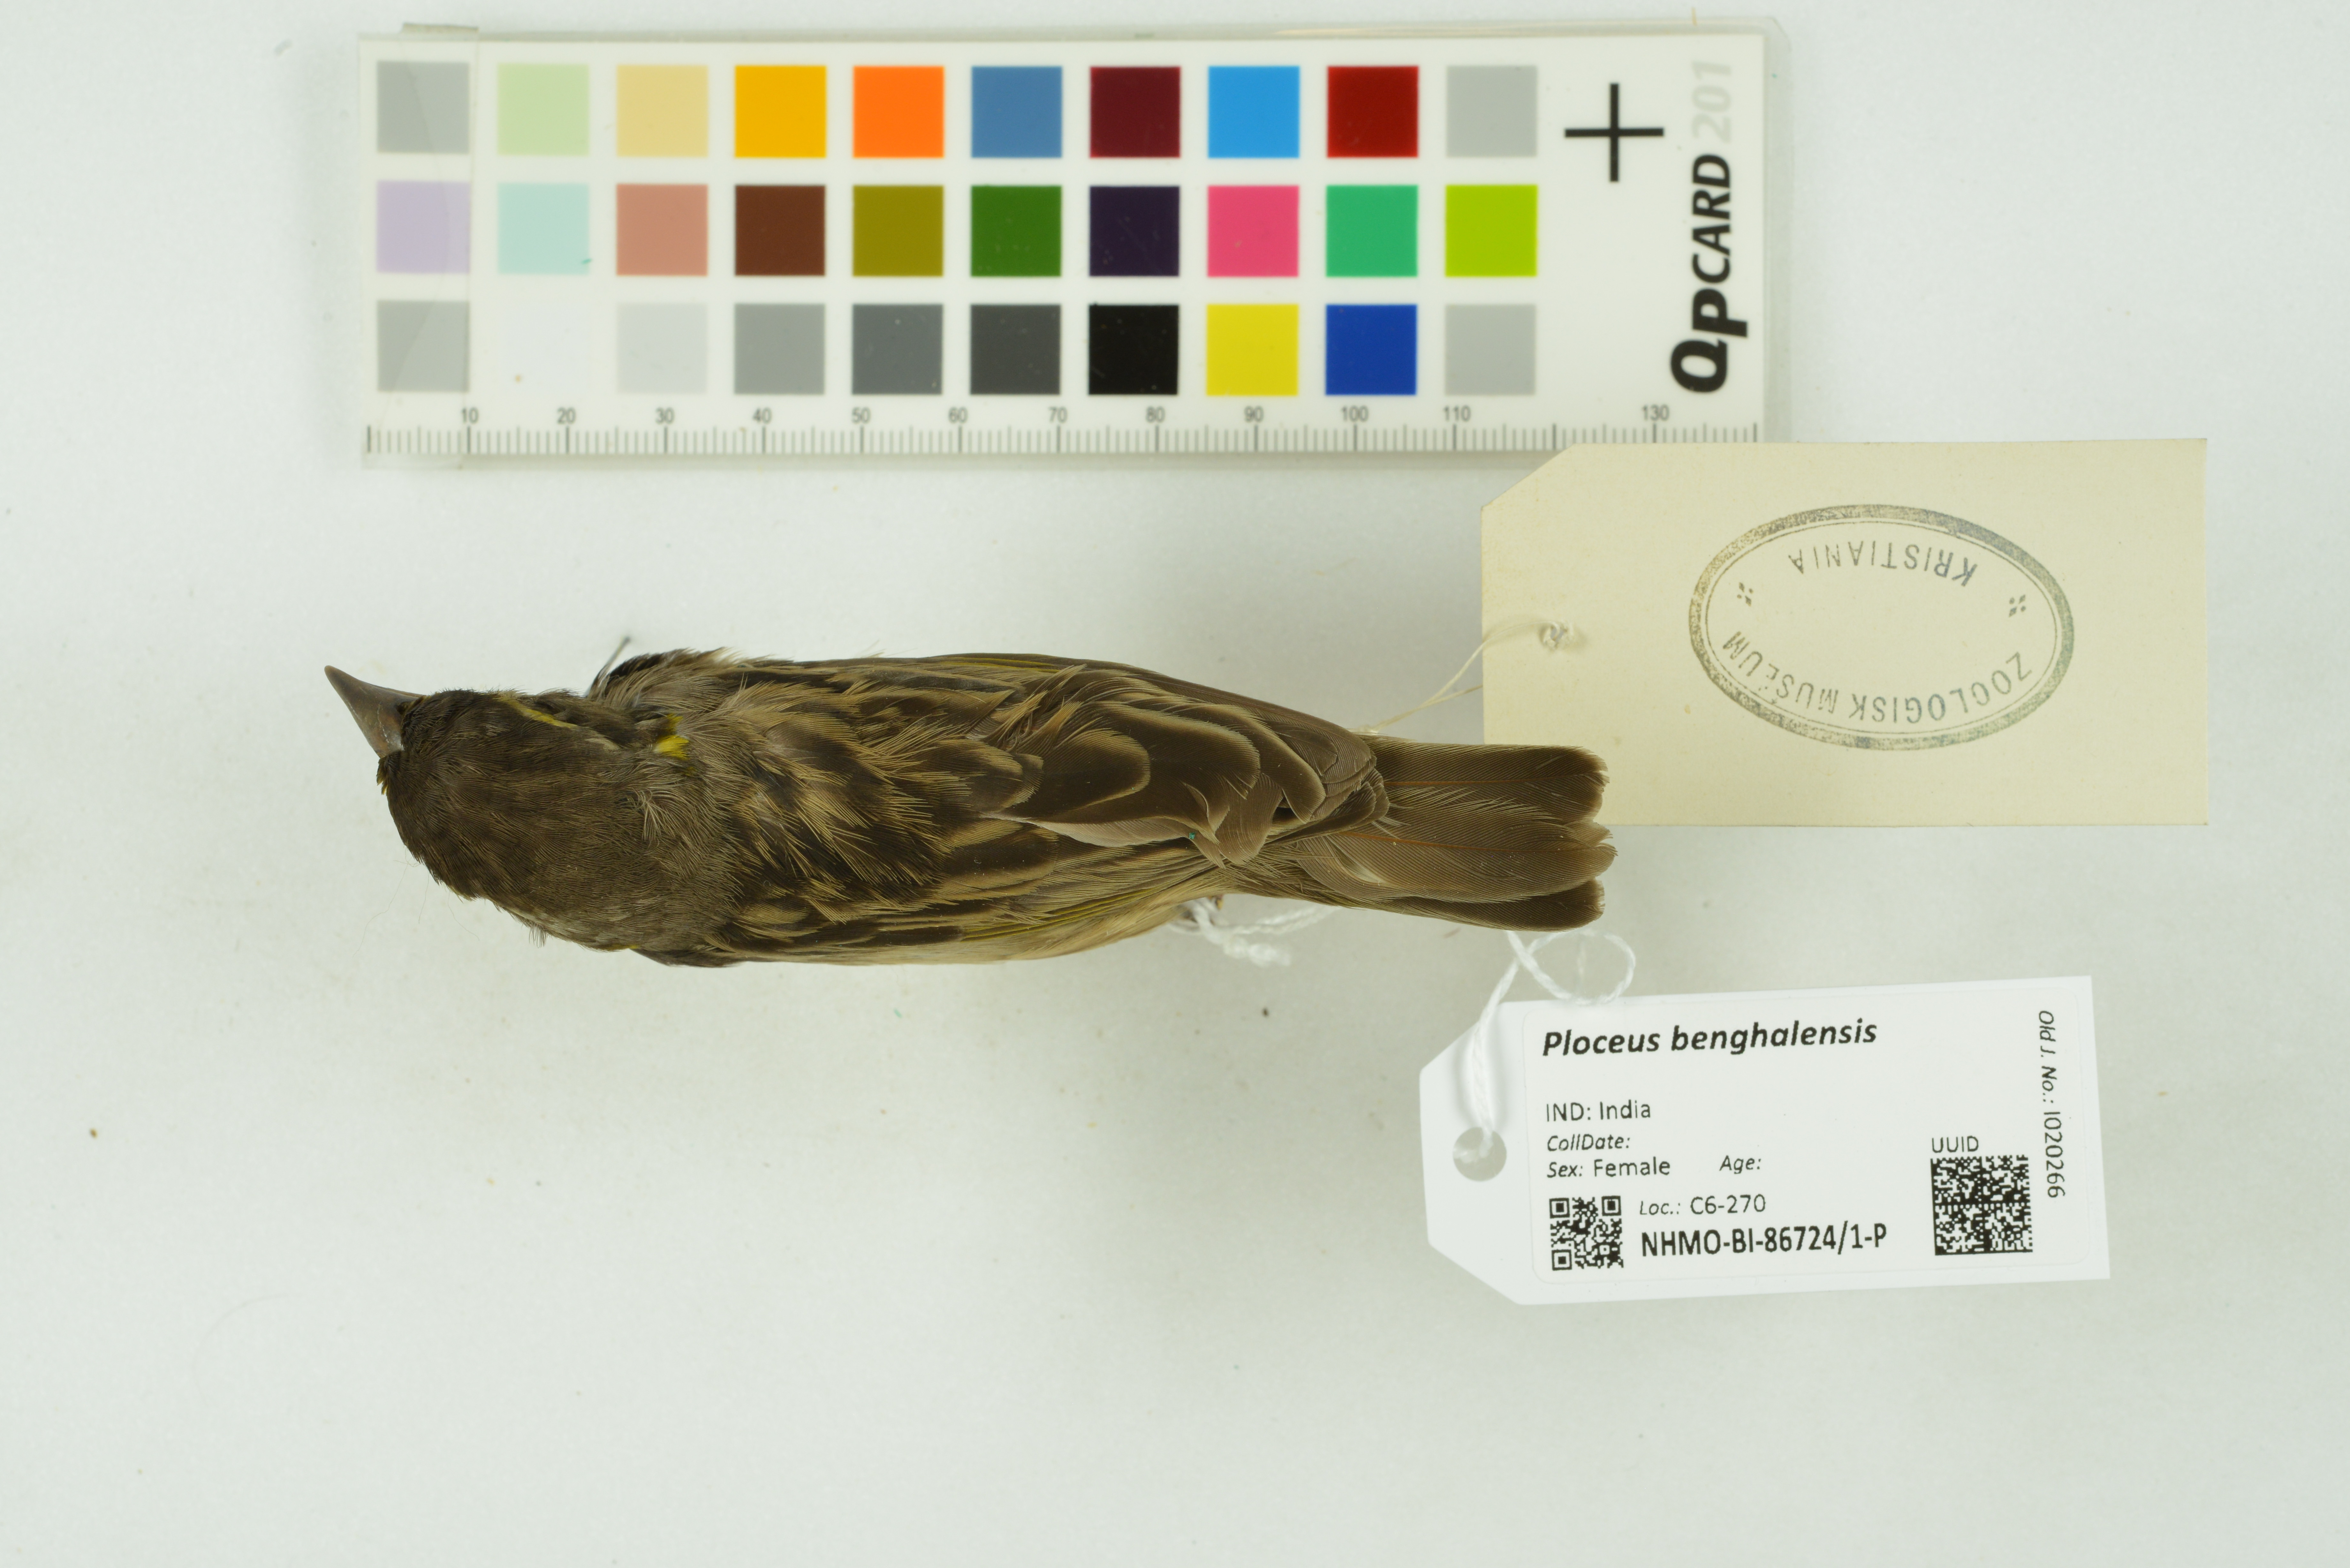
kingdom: Animalia
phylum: Chordata
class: Aves
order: Passeriformes
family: Ploceidae
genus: Ploceus
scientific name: Ploceus benghalensis
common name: Black-breasted weaver
